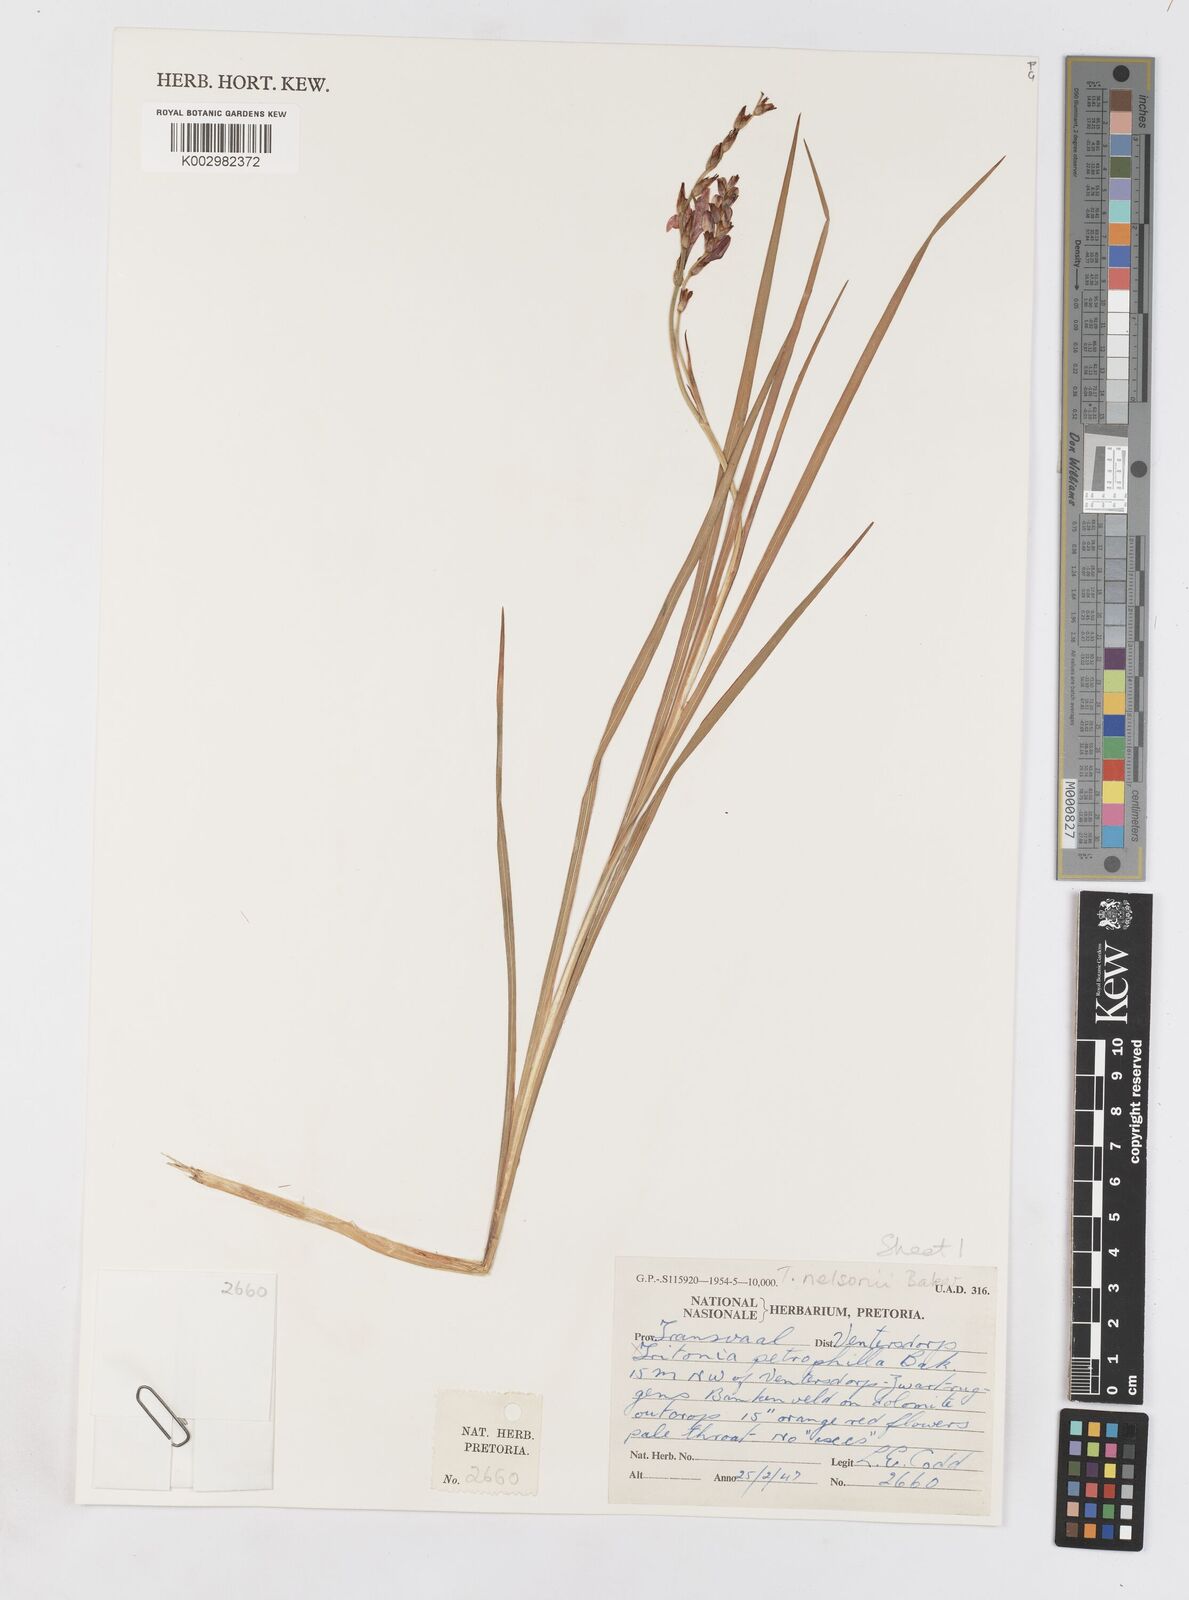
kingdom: Plantae
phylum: Tracheophyta
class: Liliopsida
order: Asparagales
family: Iridaceae
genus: Tritonia
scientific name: Tritonia nelsonii
